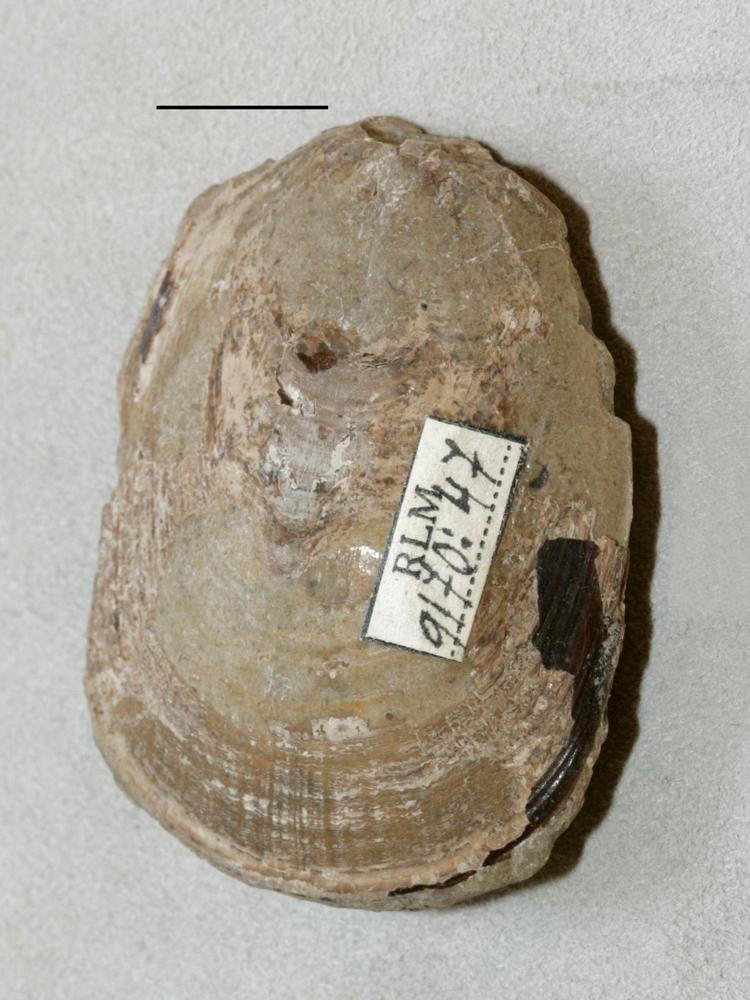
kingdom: Animalia
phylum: Brachiopoda
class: Lingulata
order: Lingulida
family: Pseudolingulidae
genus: Pseudolingula
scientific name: Pseudolingula Crania quadrata
